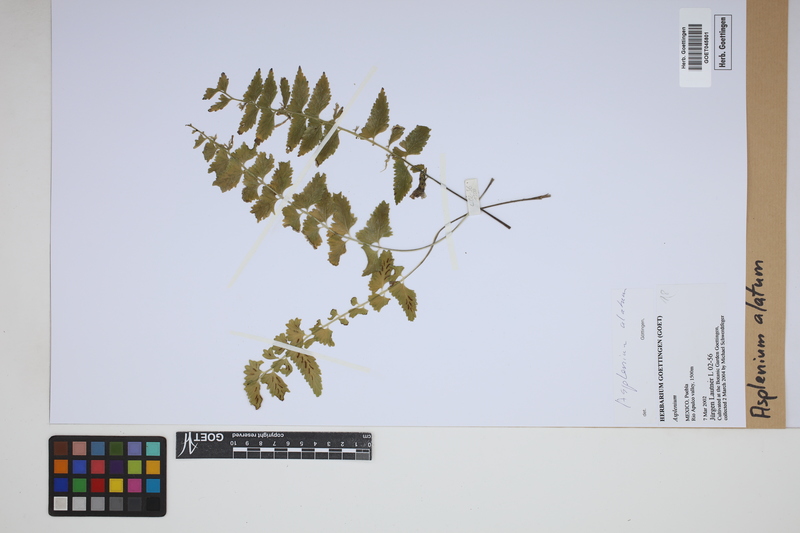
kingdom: Plantae
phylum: Tracheophyta
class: Polypodiopsida
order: Polypodiales
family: Aspleniaceae
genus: Asplenium
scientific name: Asplenium alatum
